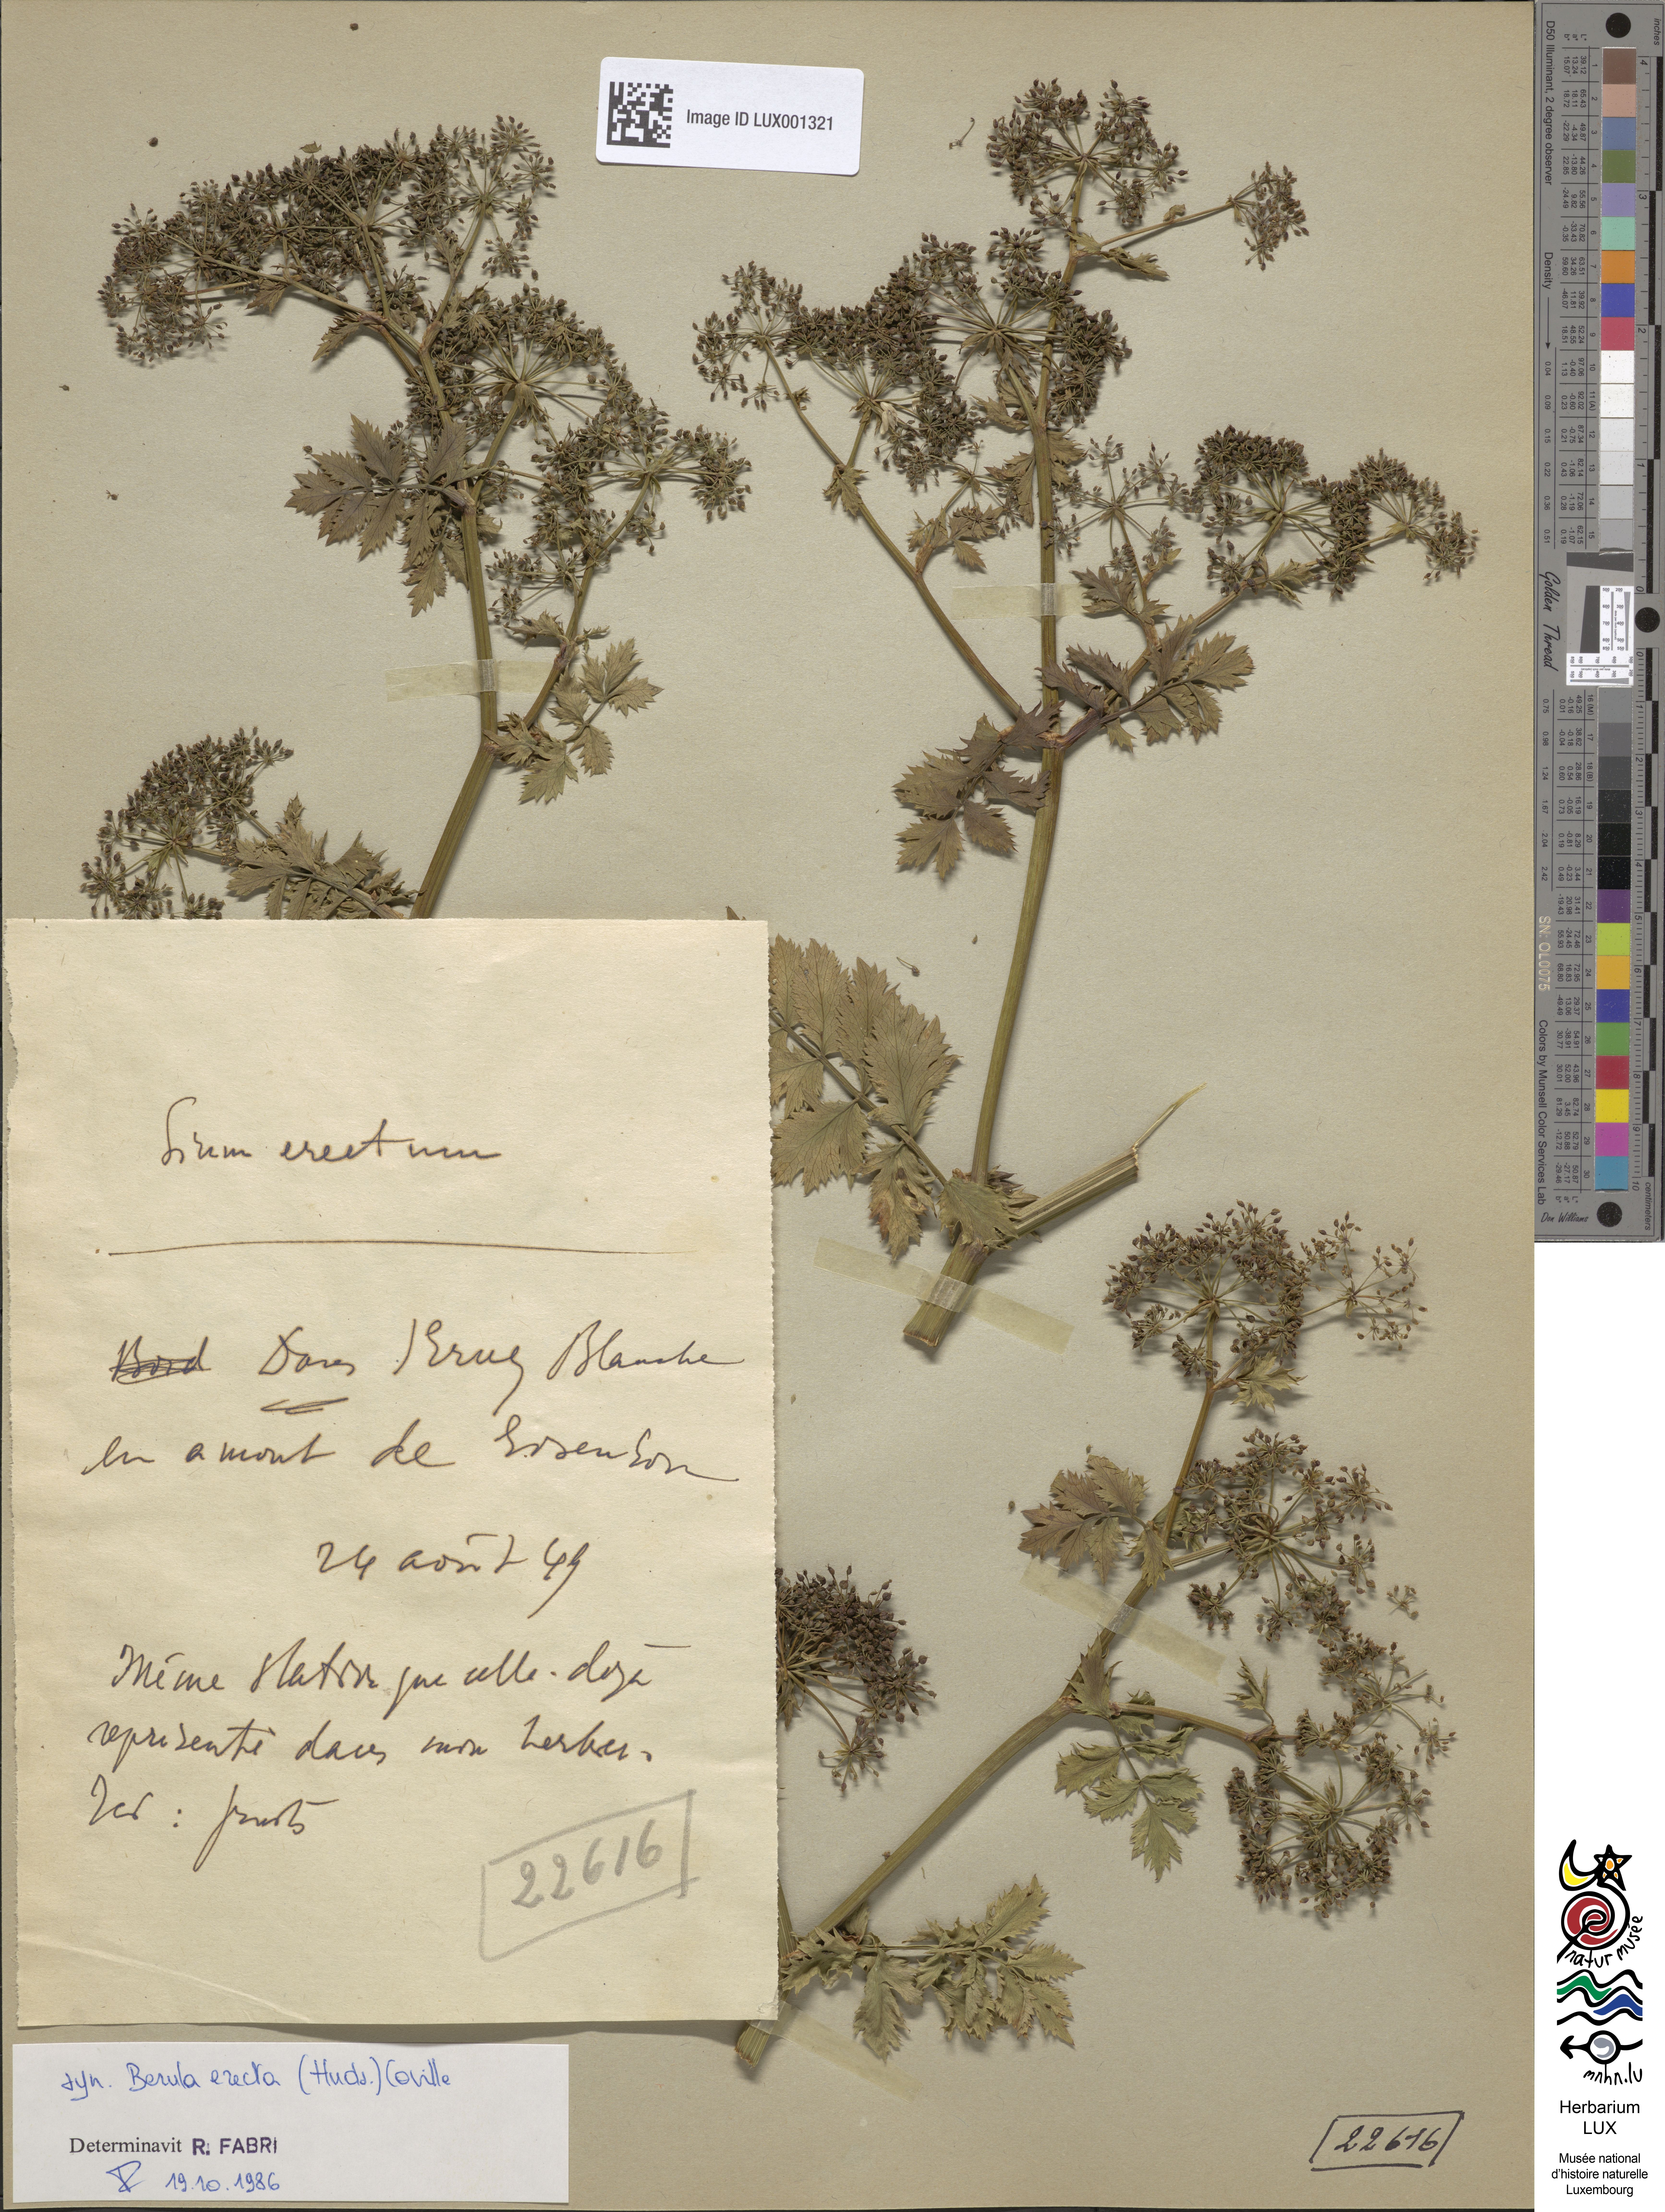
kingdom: Plantae
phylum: Tracheophyta
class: Magnoliopsida
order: Apiales
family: Apiaceae
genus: Berula
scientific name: Berula erecta
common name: Lesser water-parsnip
